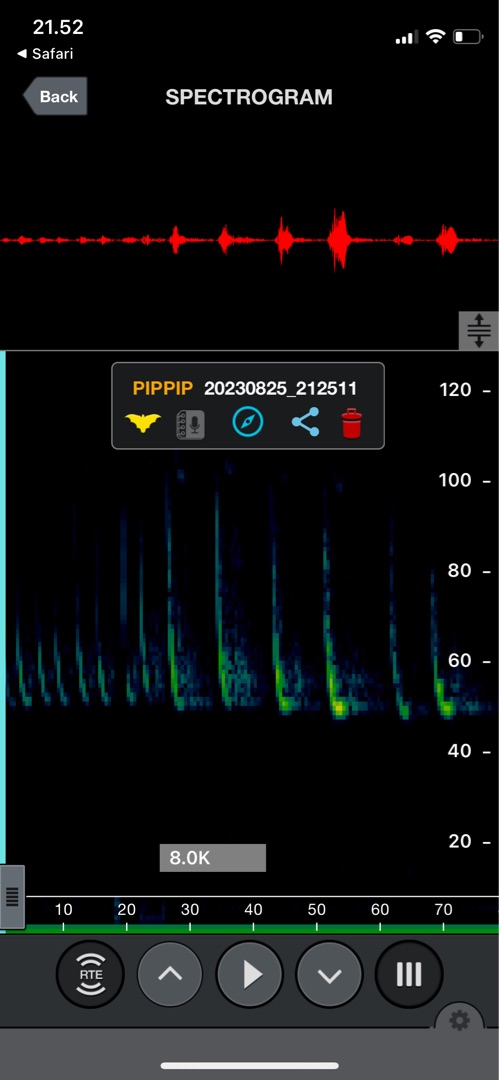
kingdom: Animalia
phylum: Chordata
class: Mammalia
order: Chiroptera
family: Vespertilionidae
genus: Pipistrellus
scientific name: Pipistrellus pygmaeus
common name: Dværgflagermus
